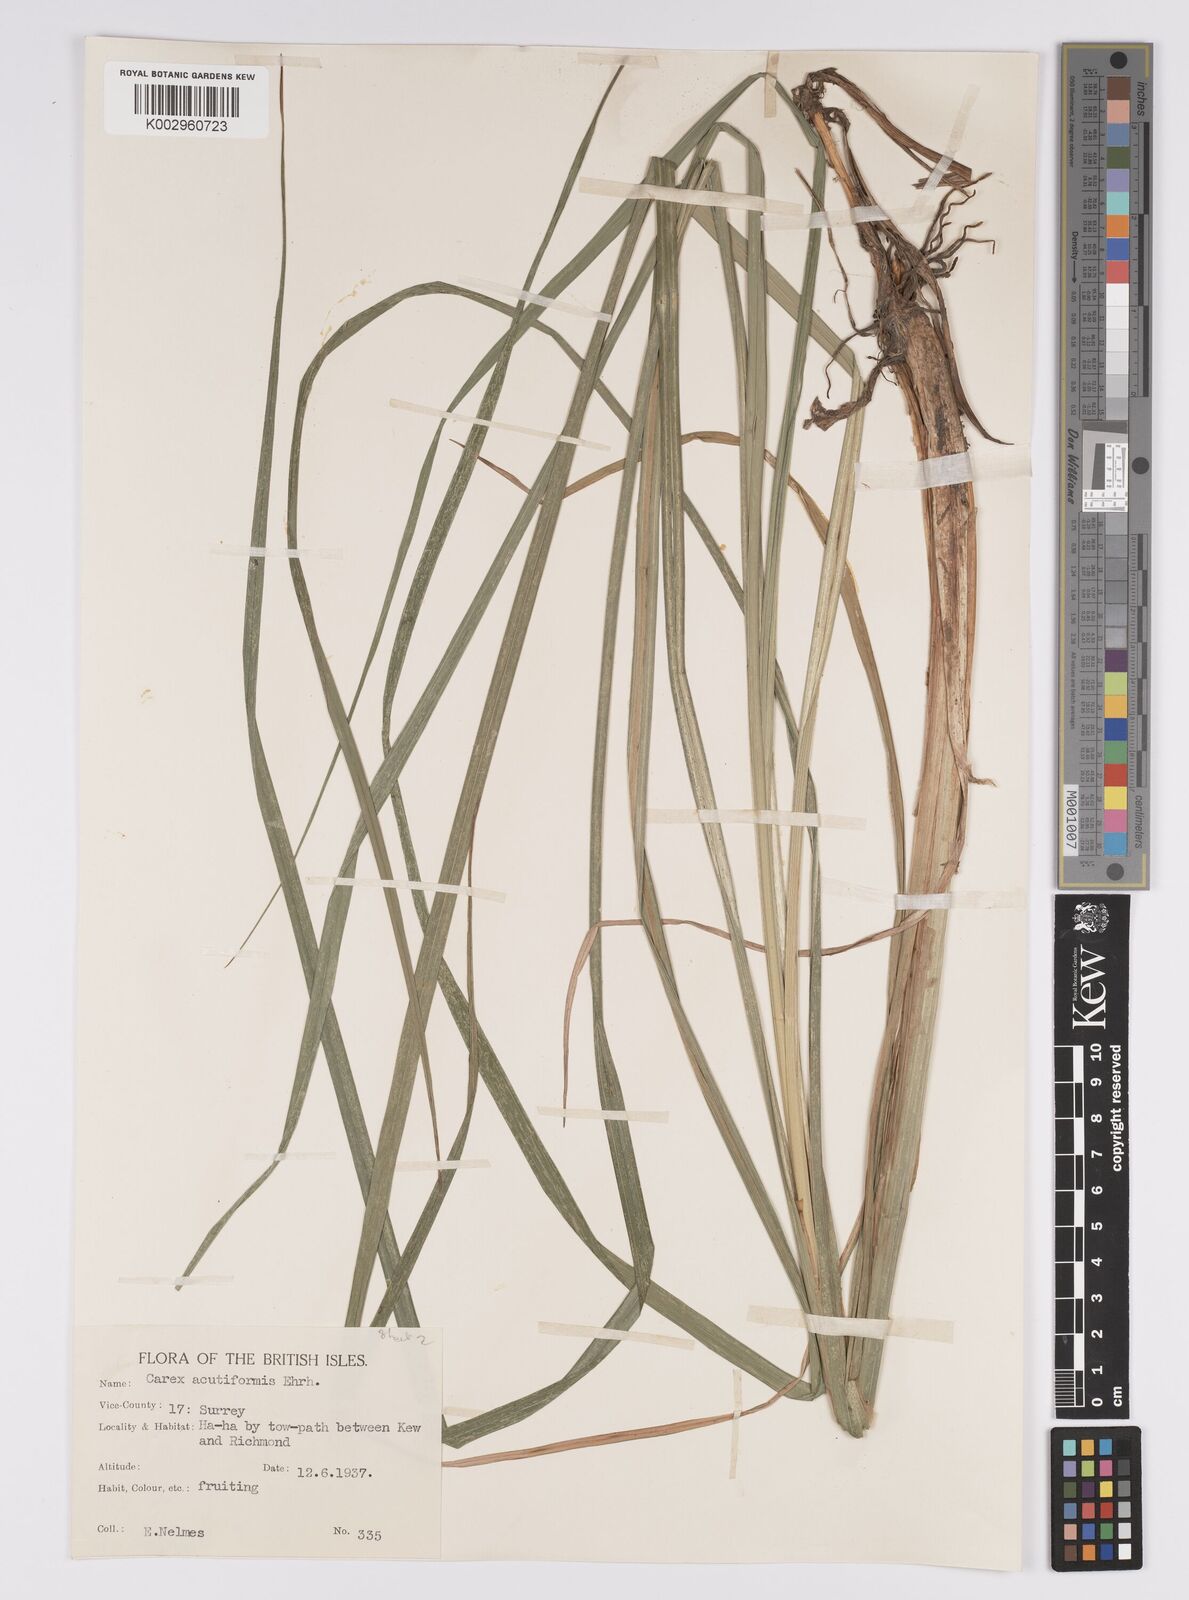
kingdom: Plantae
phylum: Tracheophyta
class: Liliopsida
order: Poales
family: Cyperaceae
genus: Carex
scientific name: Carex acutiformis
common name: Lesser pond-sedge
